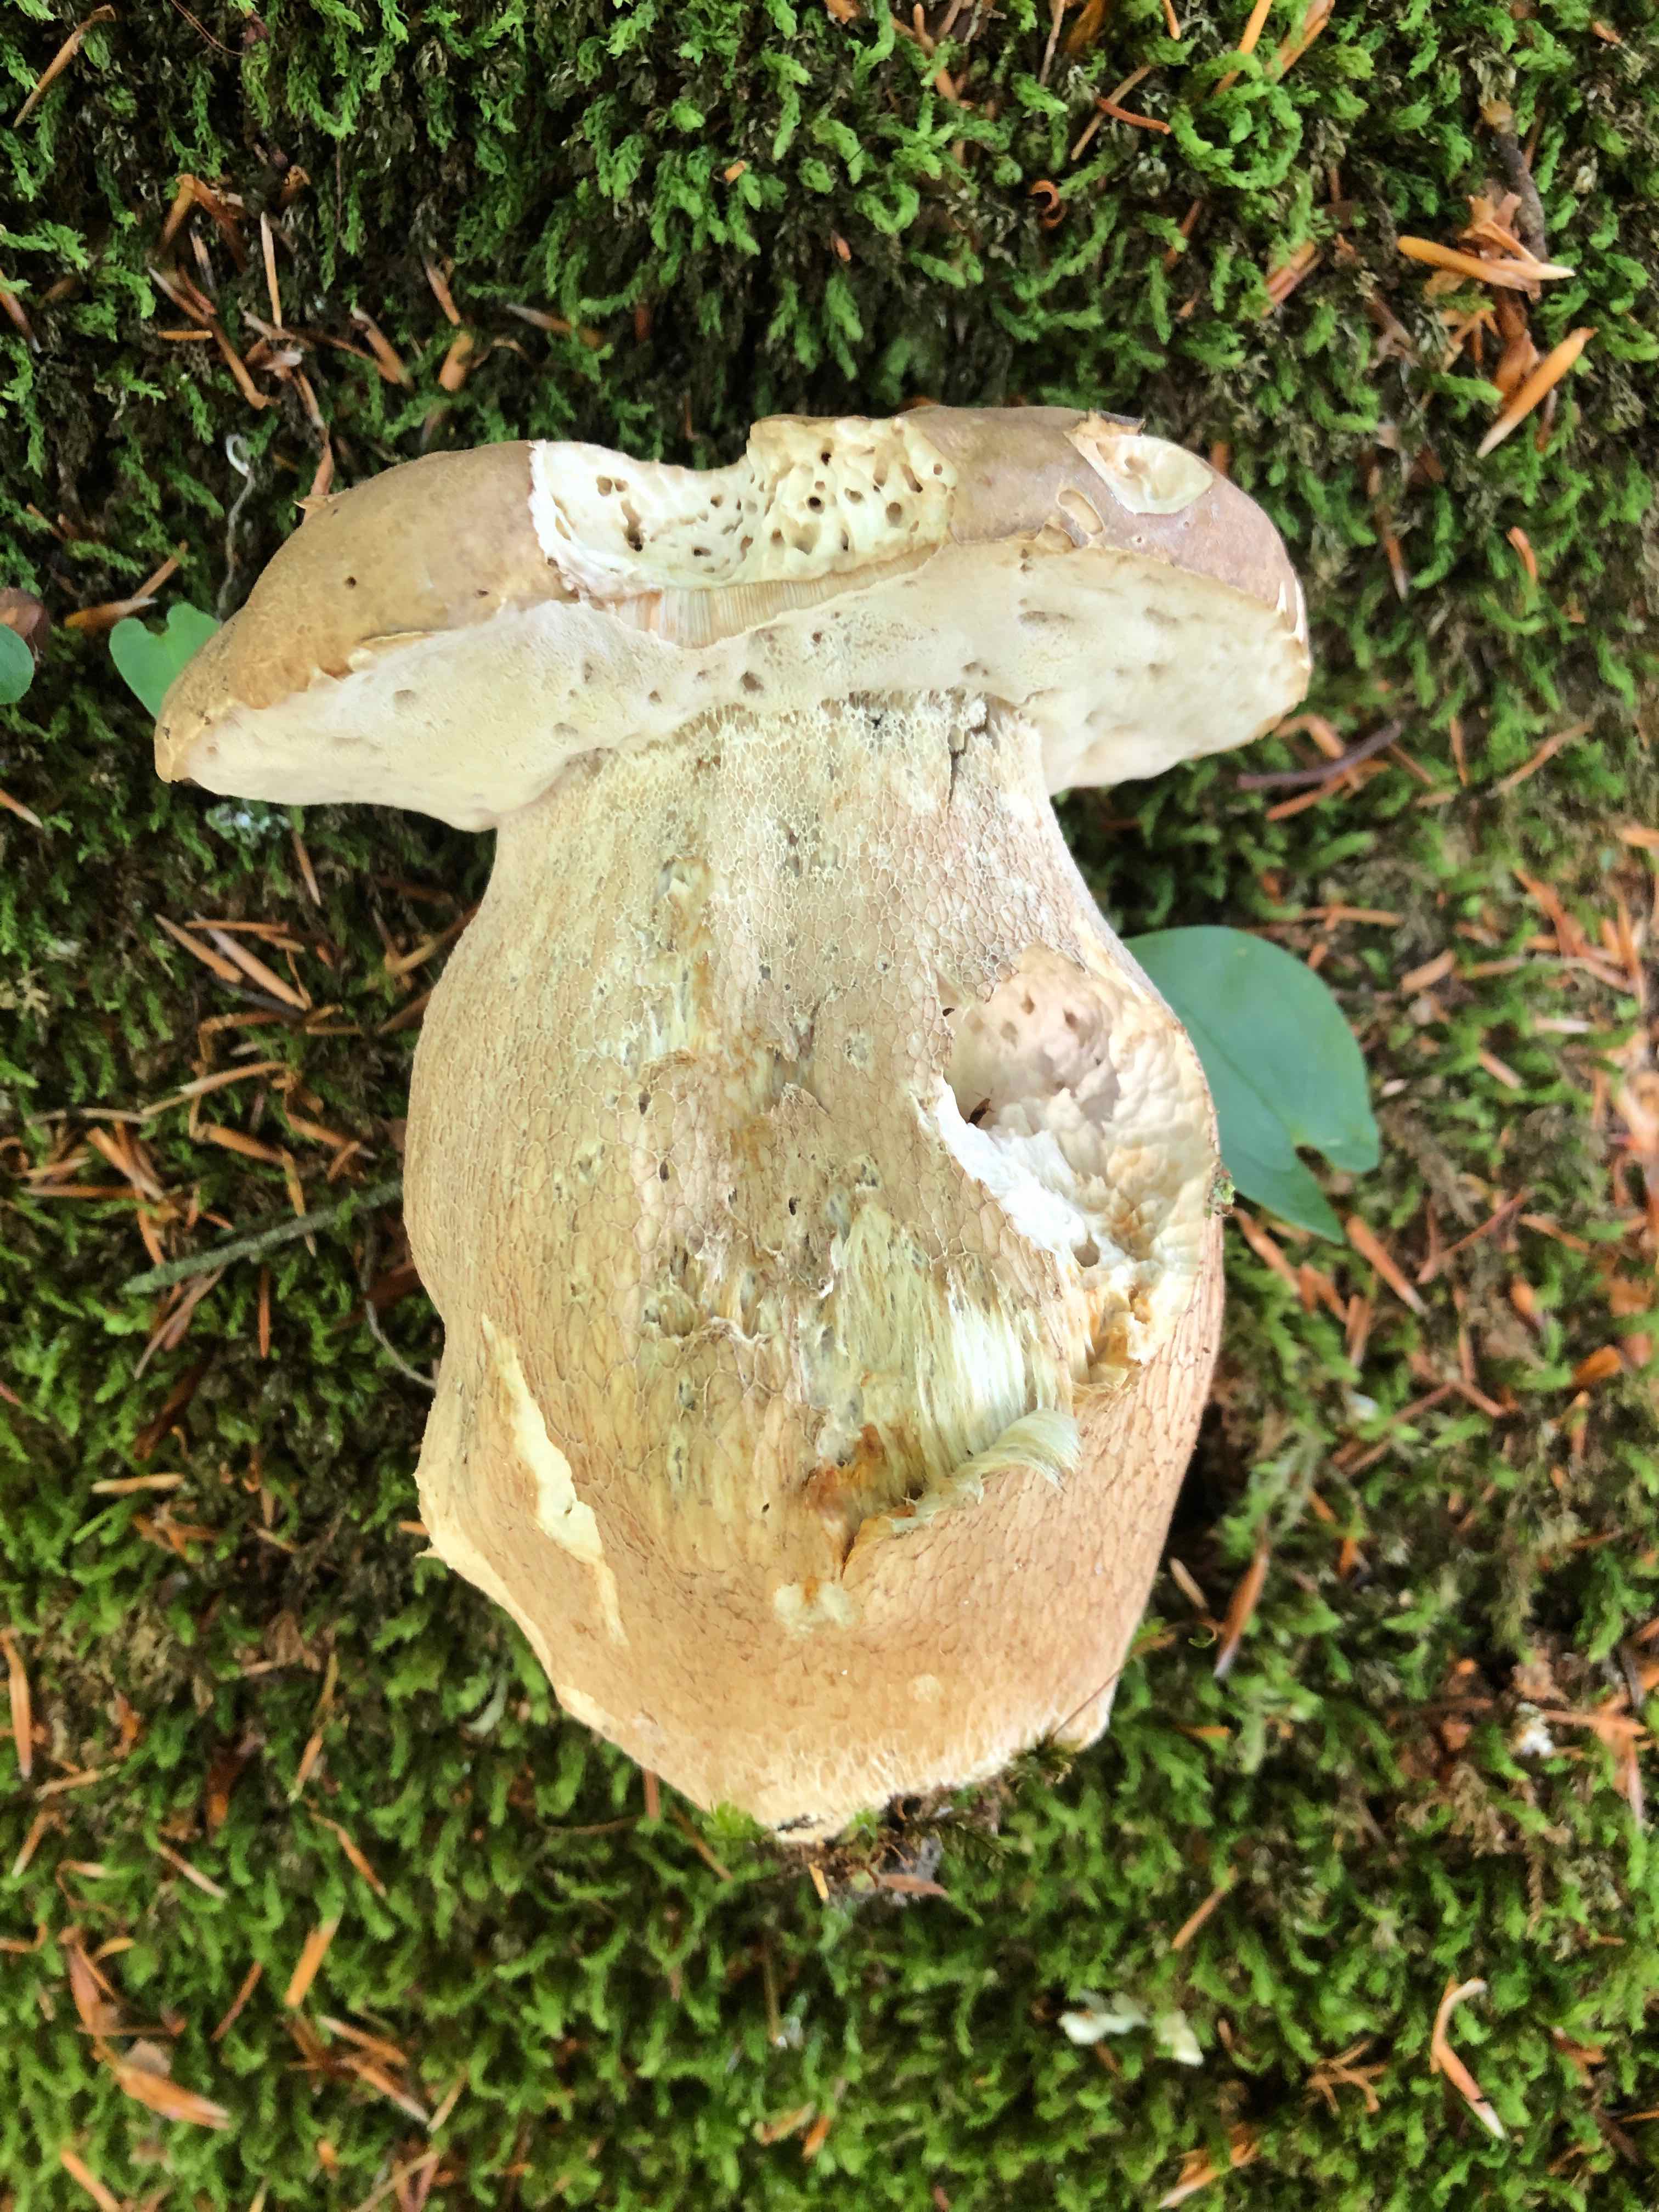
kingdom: Fungi
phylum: Basidiomycota
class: Agaricomycetes
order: Boletales
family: Boletaceae
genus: Boletus
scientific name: Boletus reticulatus
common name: sommer-rørhat
